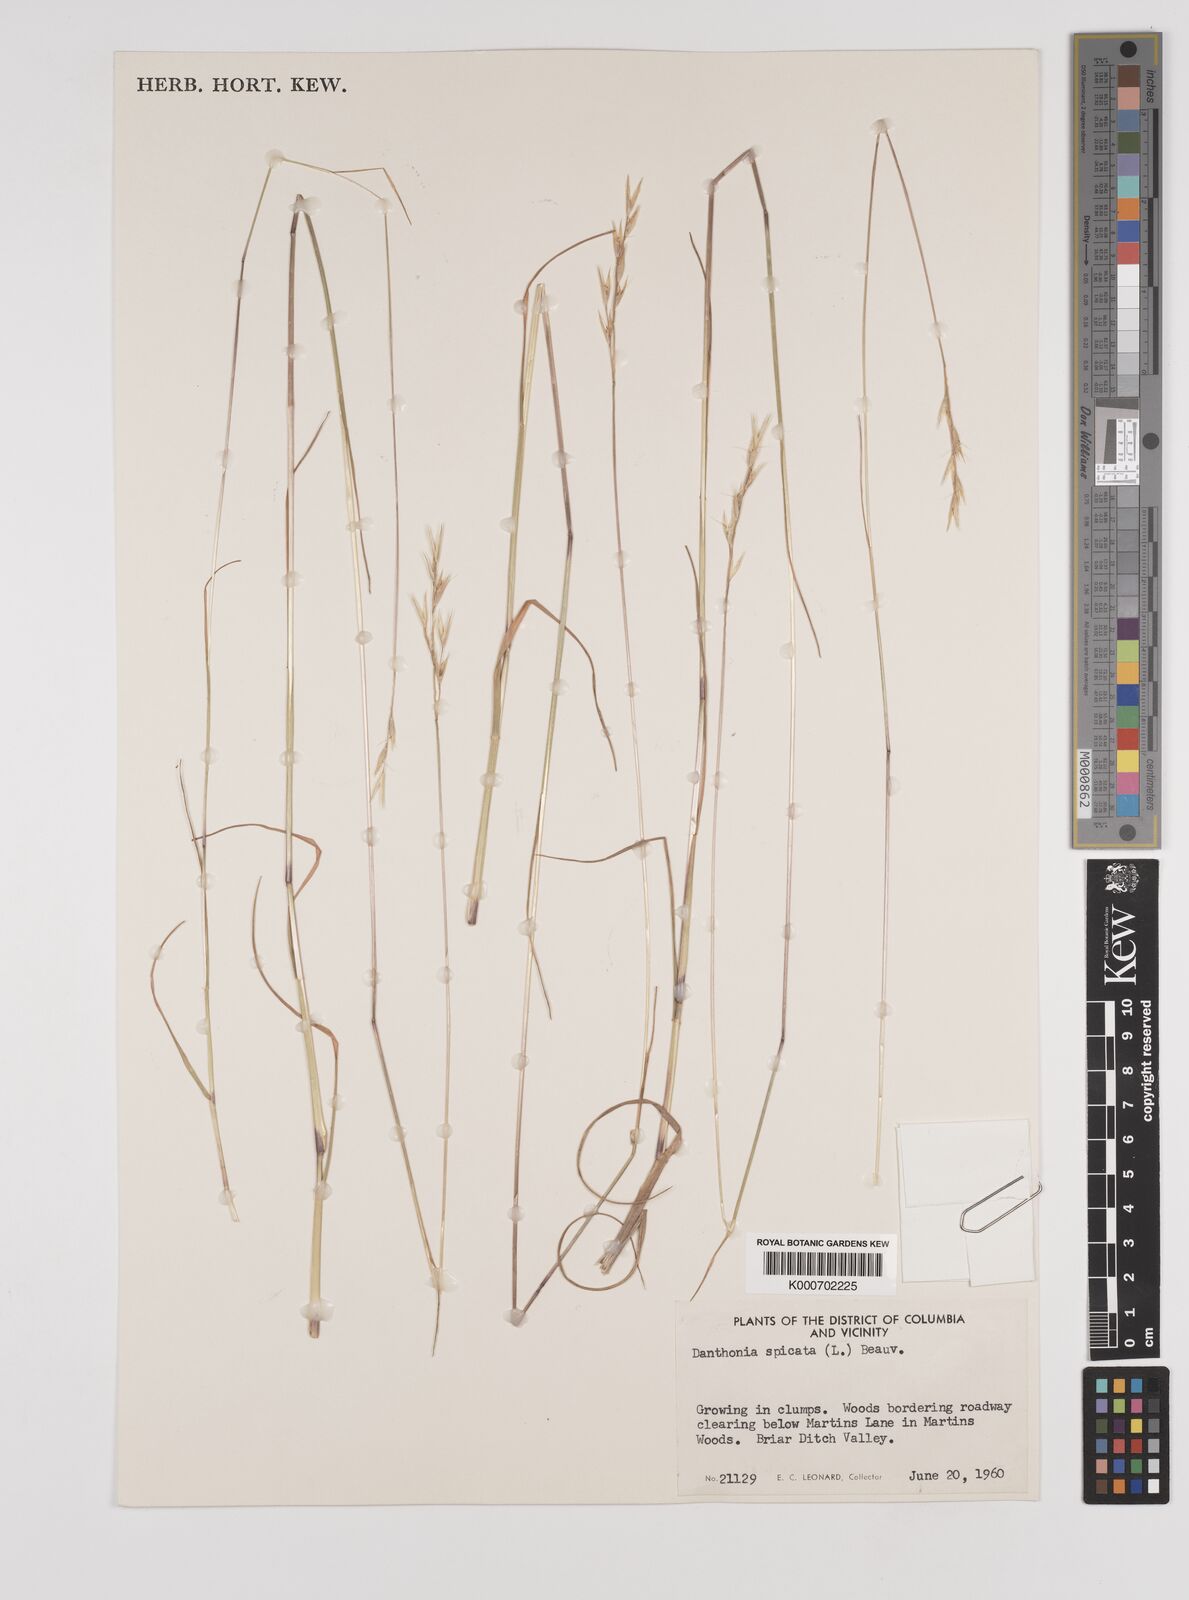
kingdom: Plantae
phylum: Tracheophyta
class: Liliopsida
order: Poales
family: Poaceae
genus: Danthonia
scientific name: Danthonia spicata
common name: Common wild oatgrass
